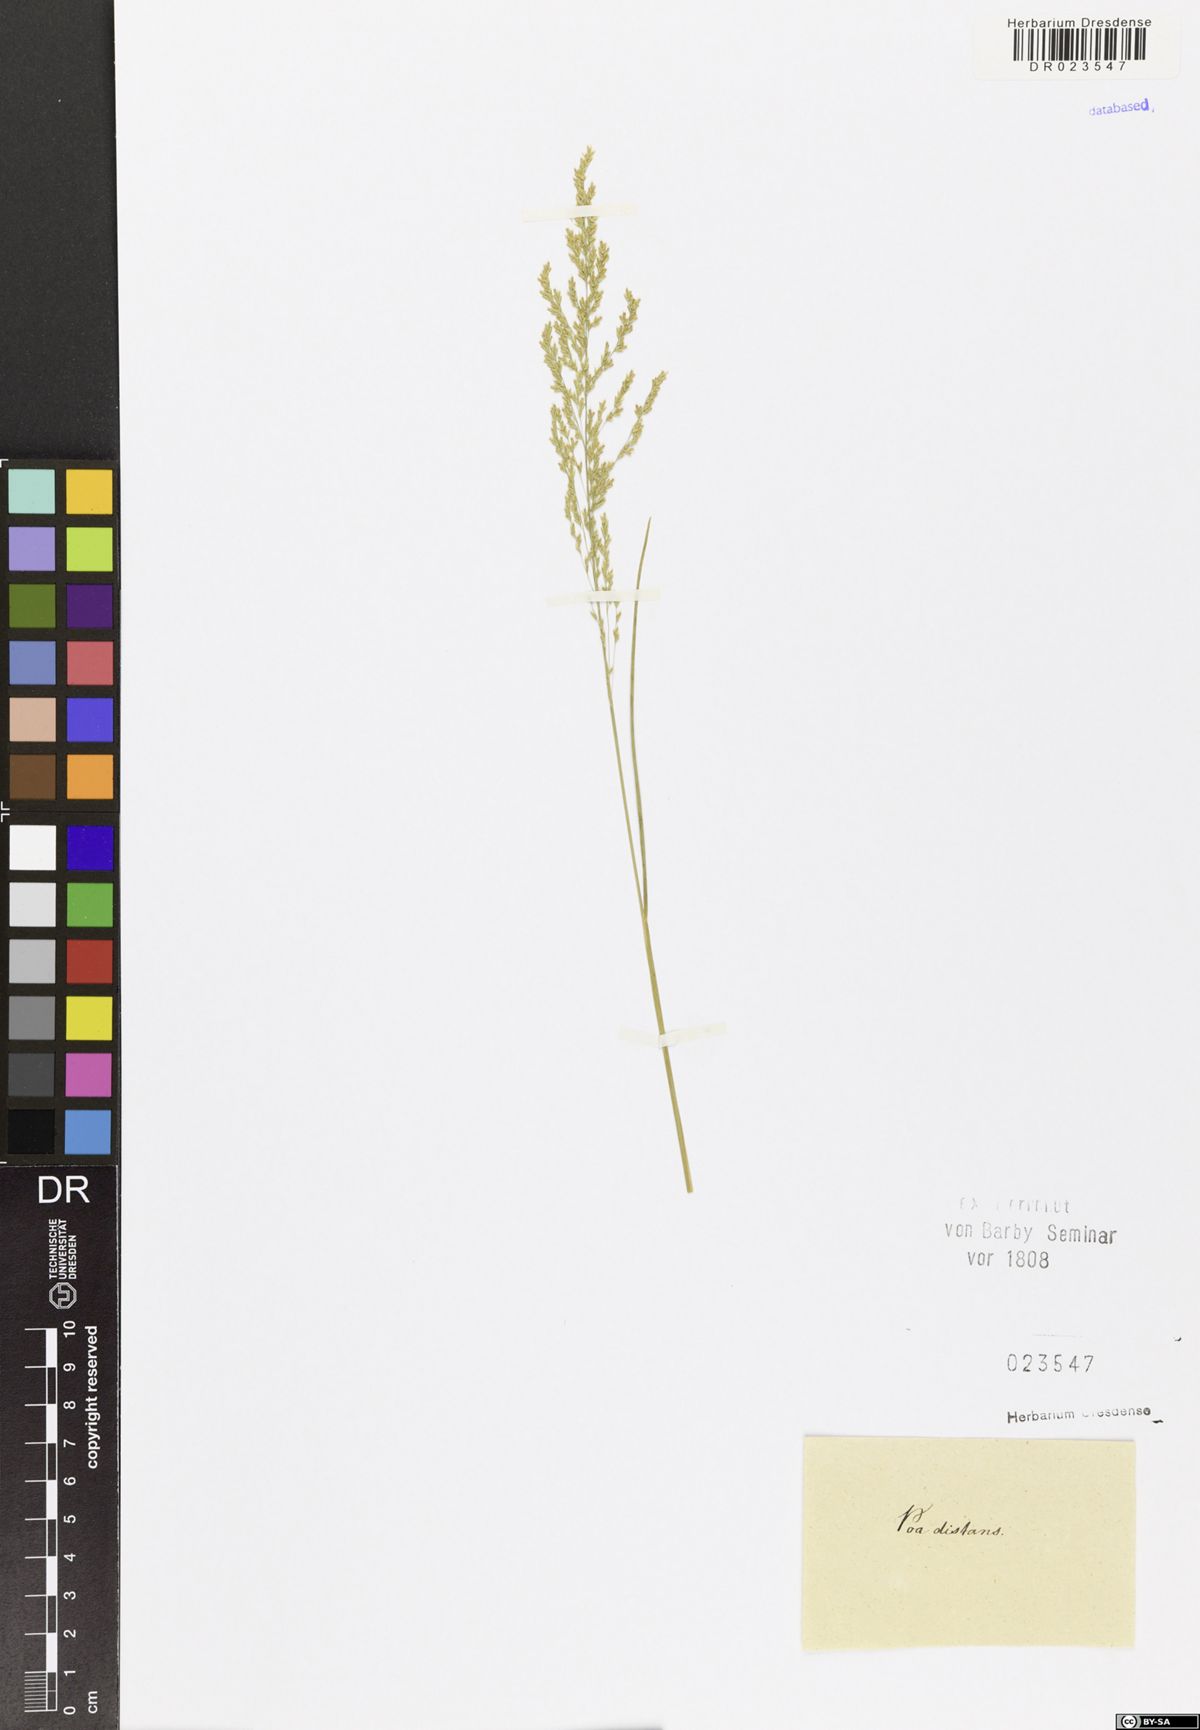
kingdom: Plantae
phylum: Tracheophyta
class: Liliopsida
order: Poales
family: Poaceae
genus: Puccinellia
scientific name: Puccinellia distans
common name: Weeping alkaligrass
